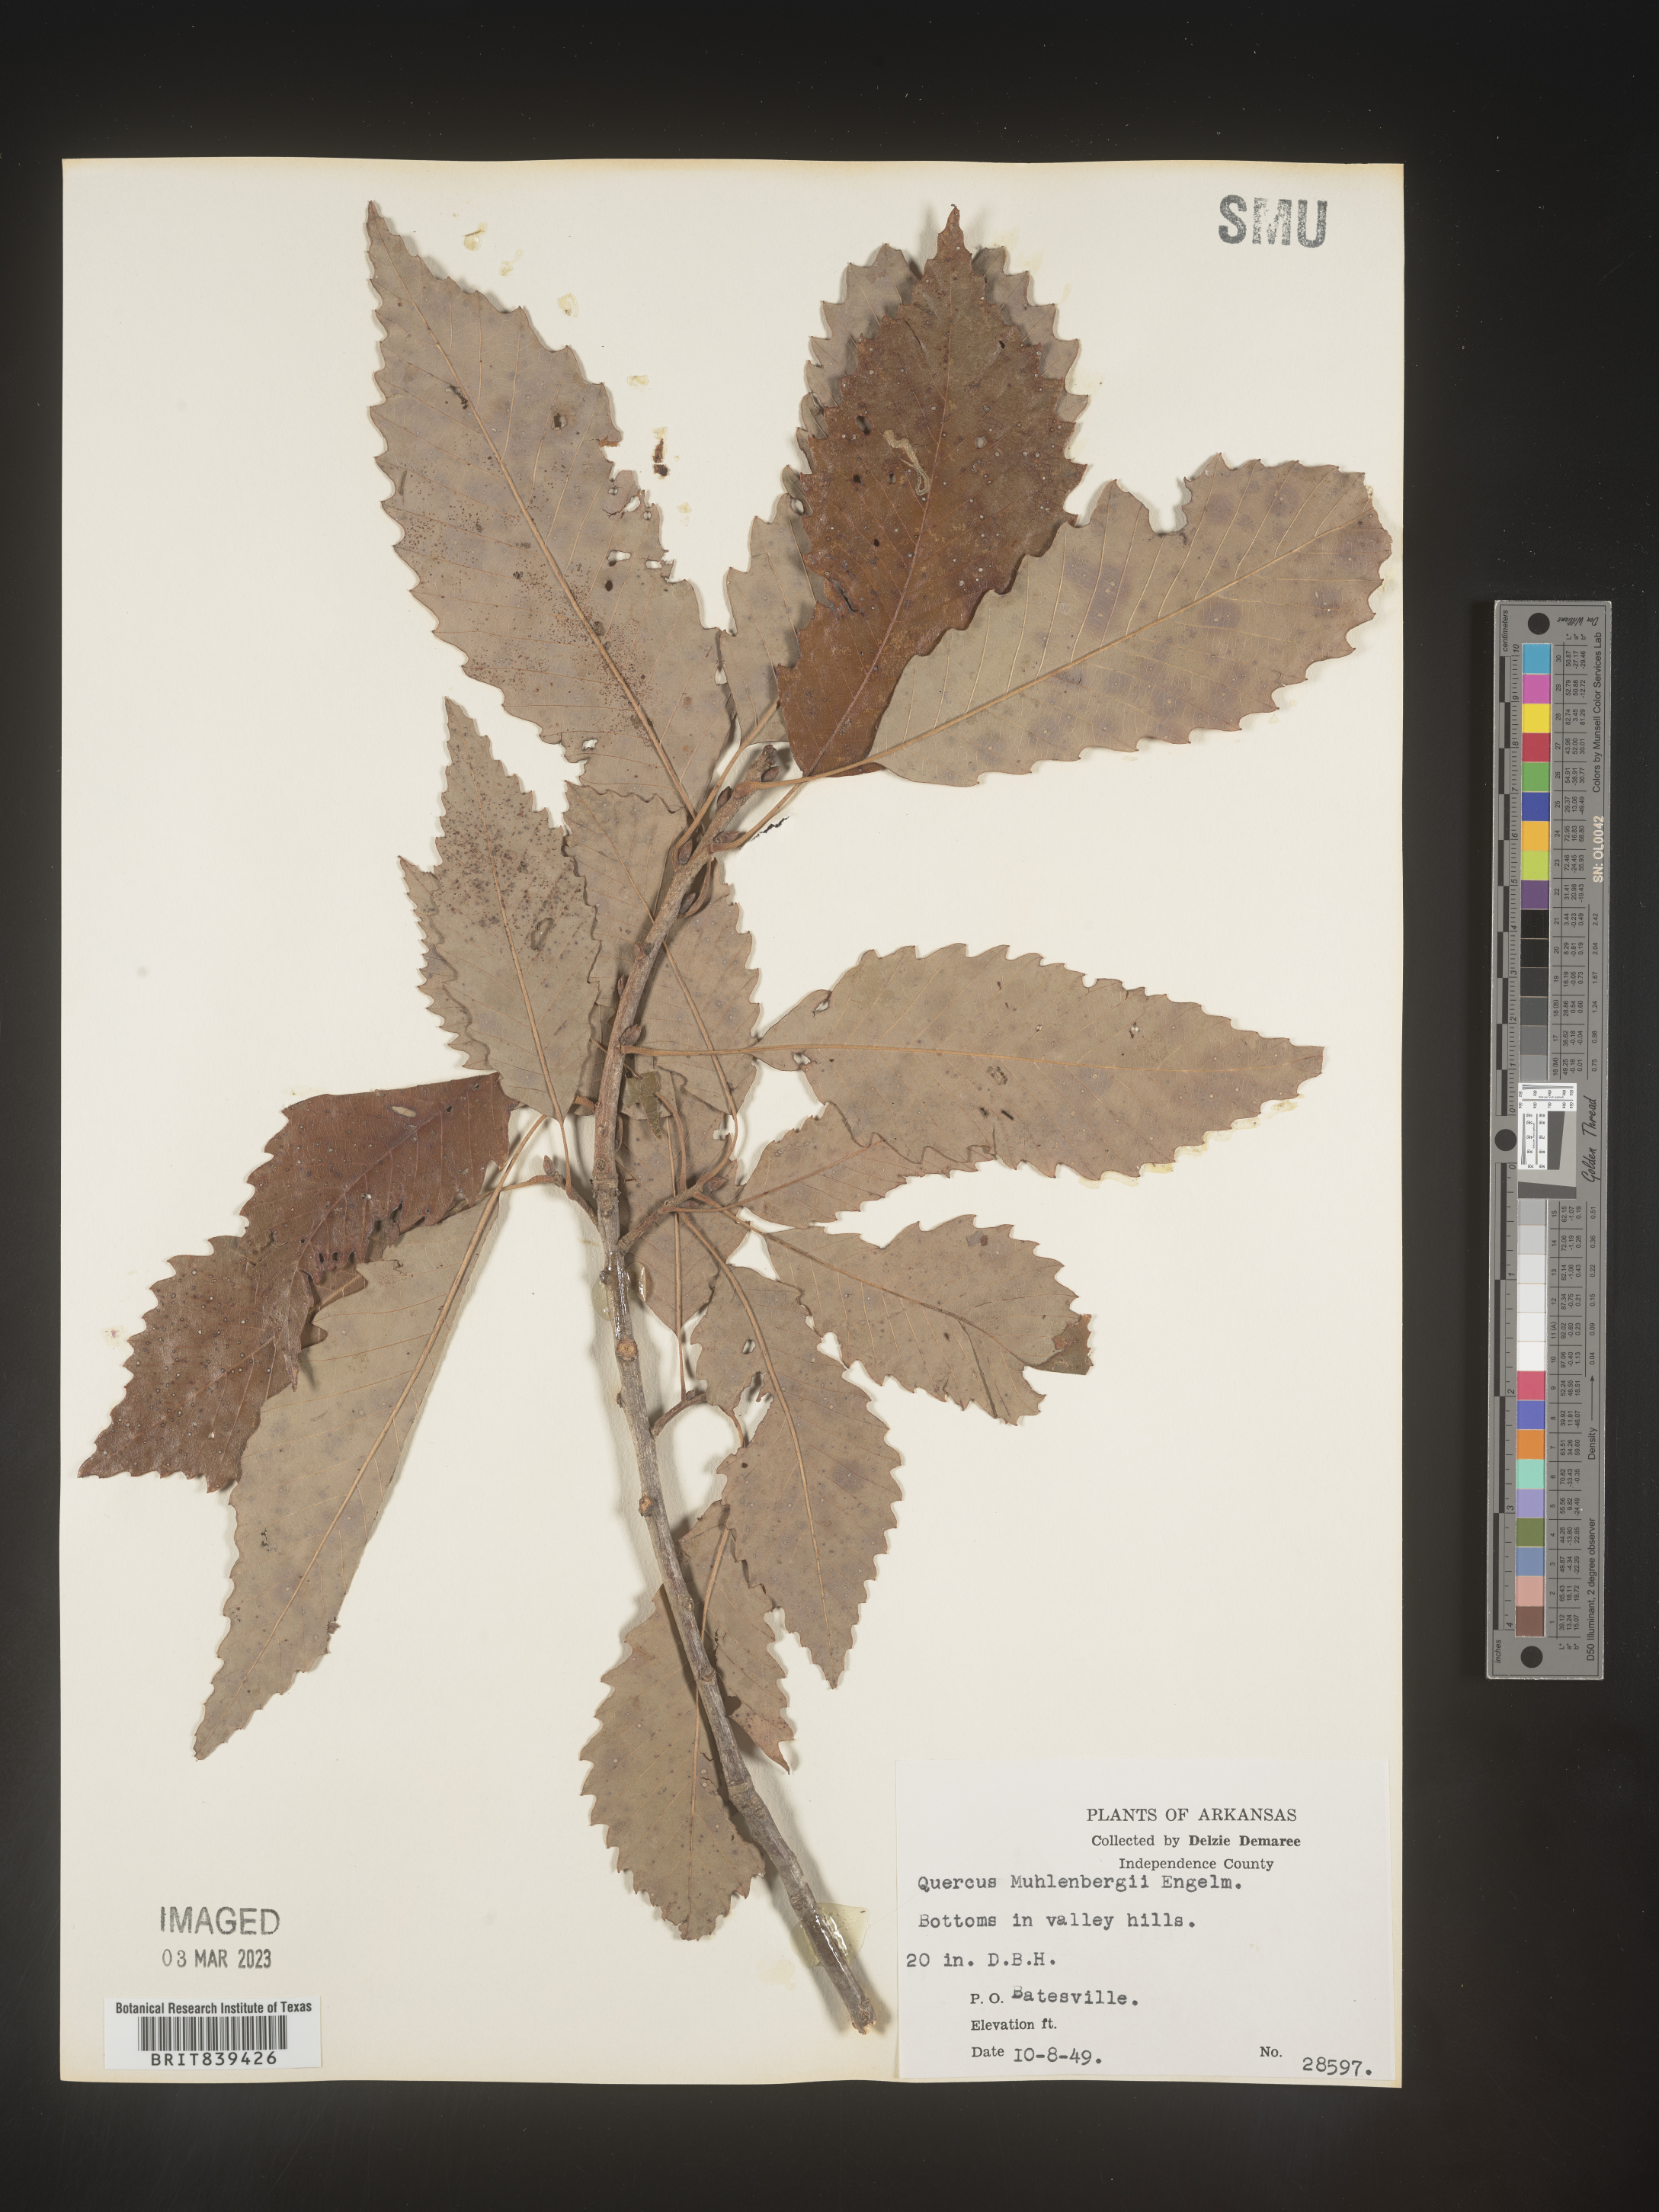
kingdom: Plantae
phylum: Tracheophyta
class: Magnoliopsida
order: Fagales
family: Fagaceae
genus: Quercus
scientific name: Quercus muehlenbergii
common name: Chinkapin oak
